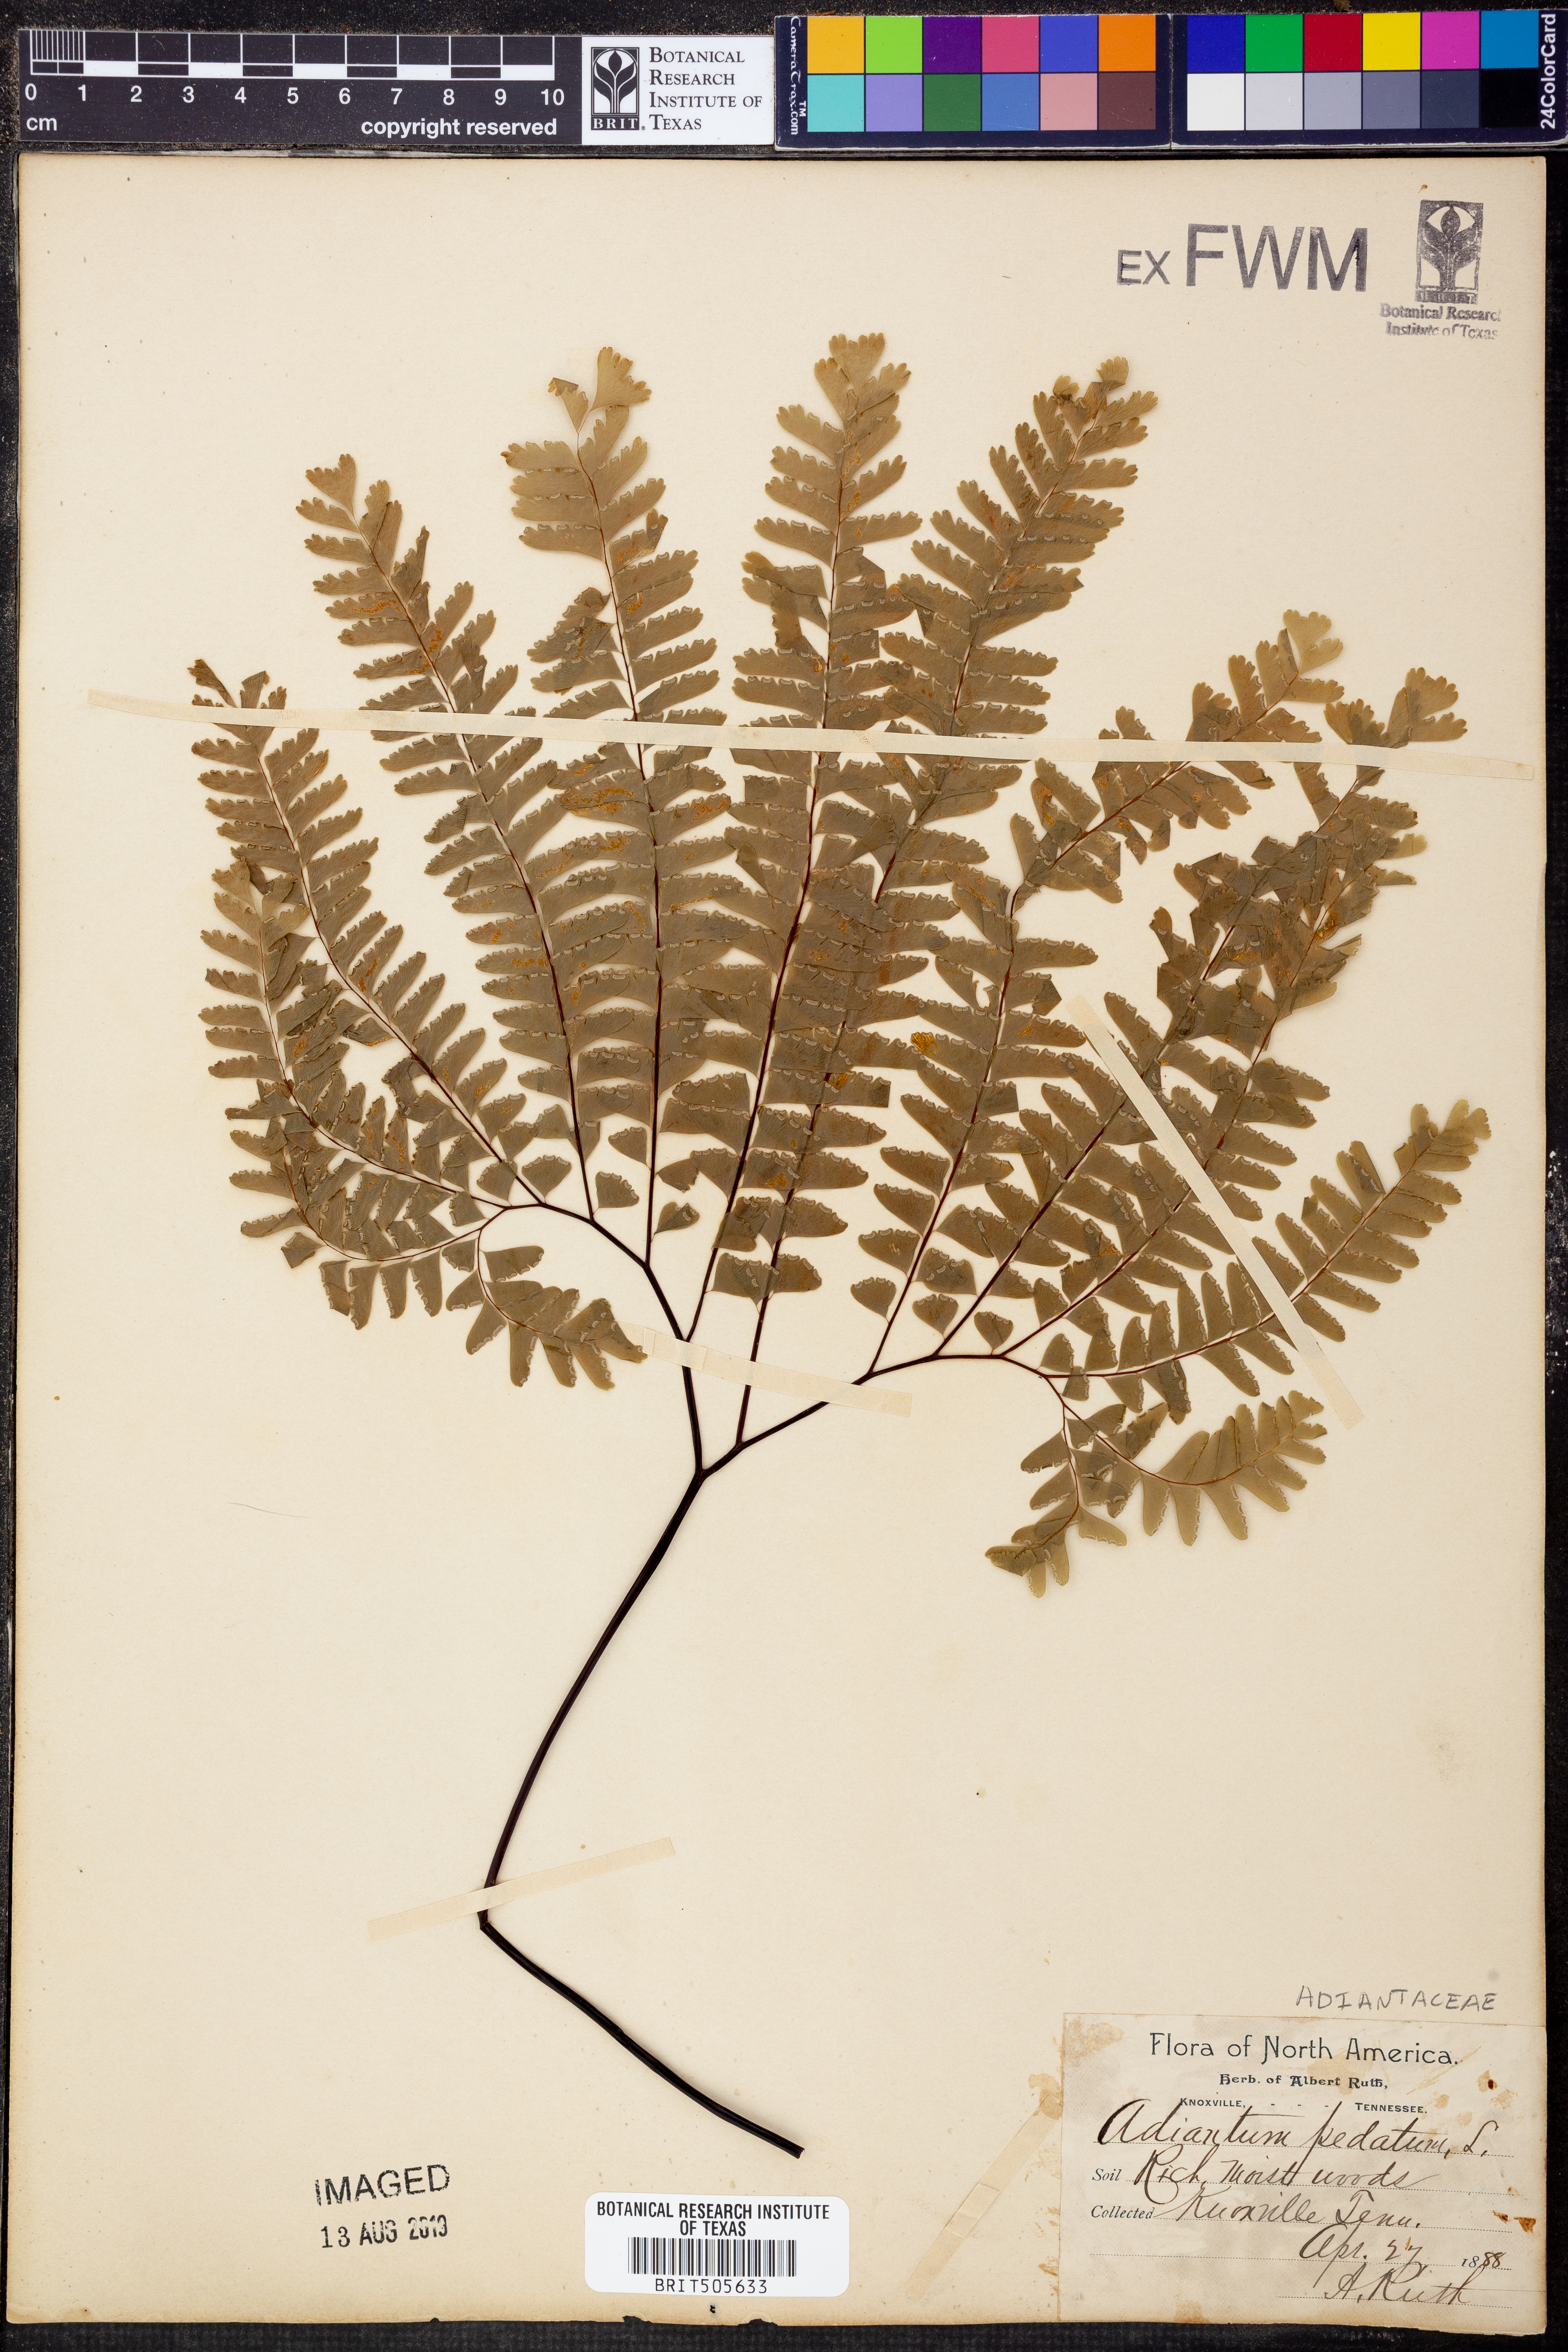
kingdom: Plantae
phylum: Tracheophyta
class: Polypodiopsida
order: Polypodiales
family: Pteridaceae
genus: Adiantum
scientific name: Adiantum pedatum
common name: Five-finger fern
